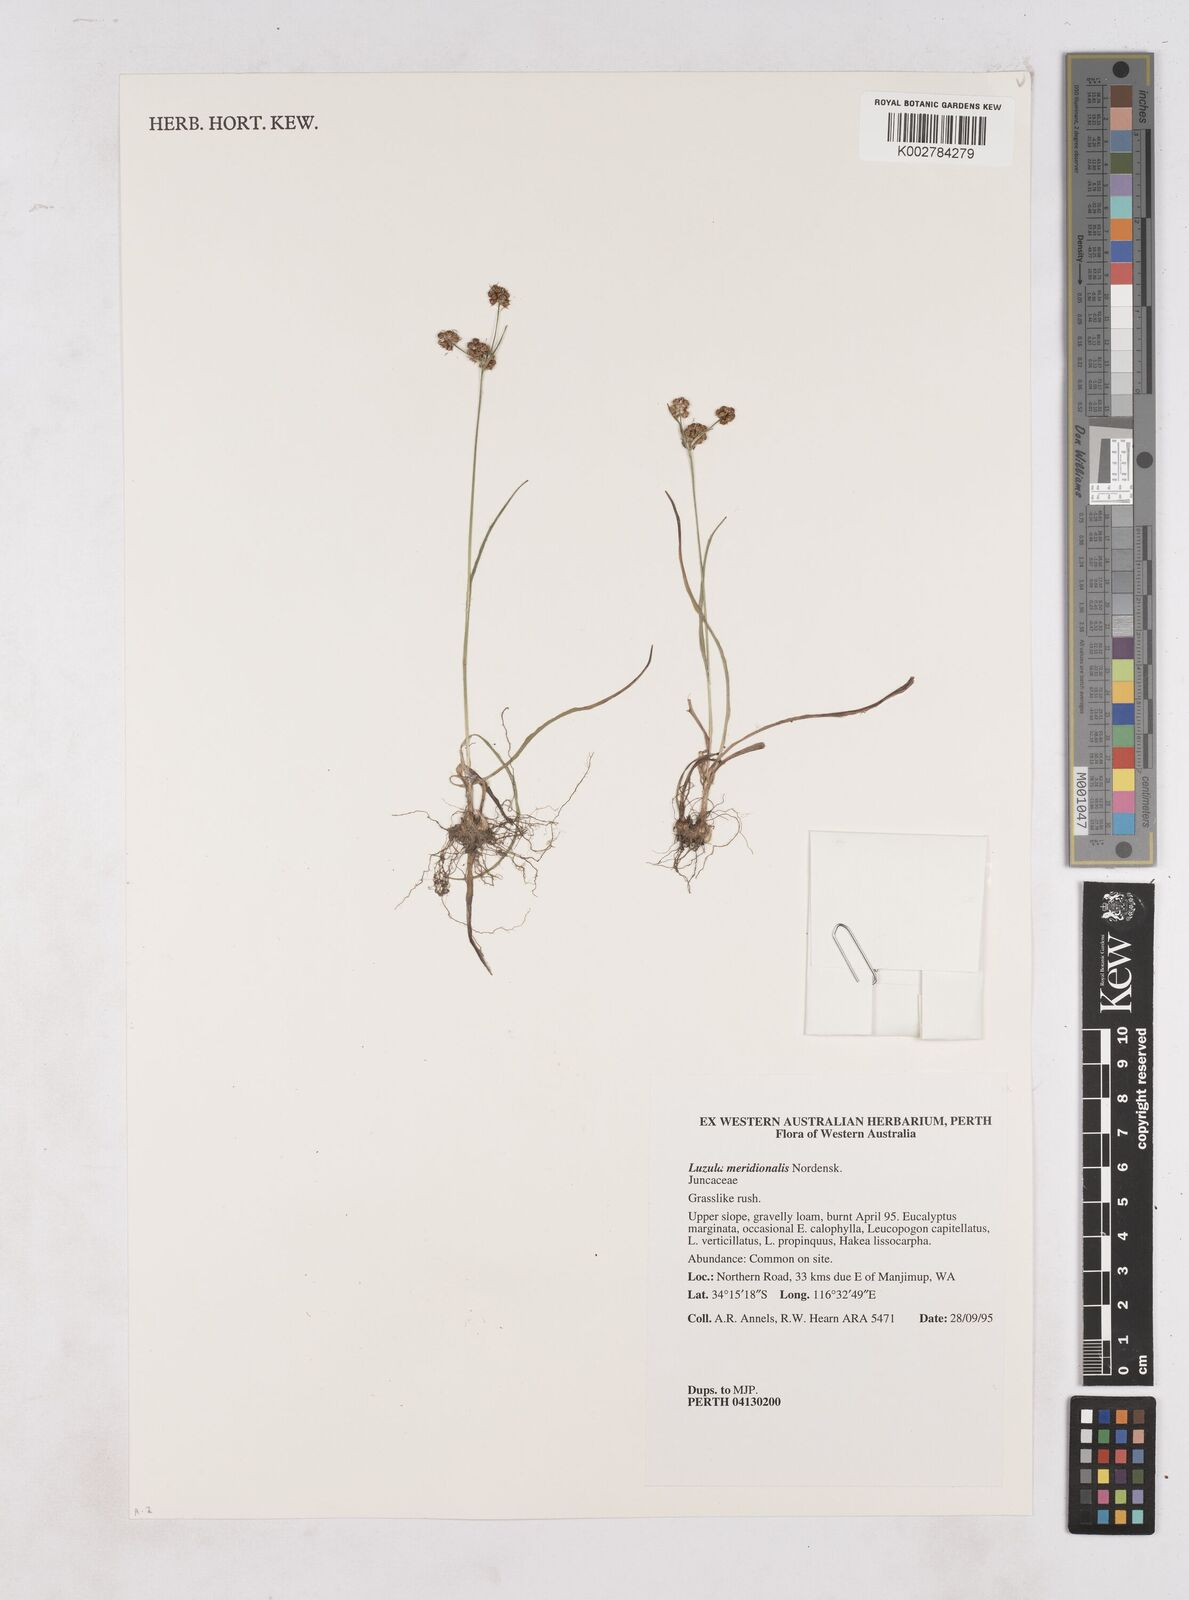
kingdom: Plantae
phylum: Tracheophyta
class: Liliopsida
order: Poales
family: Juncaceae
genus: Luzula
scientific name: Luzula meridionalis
